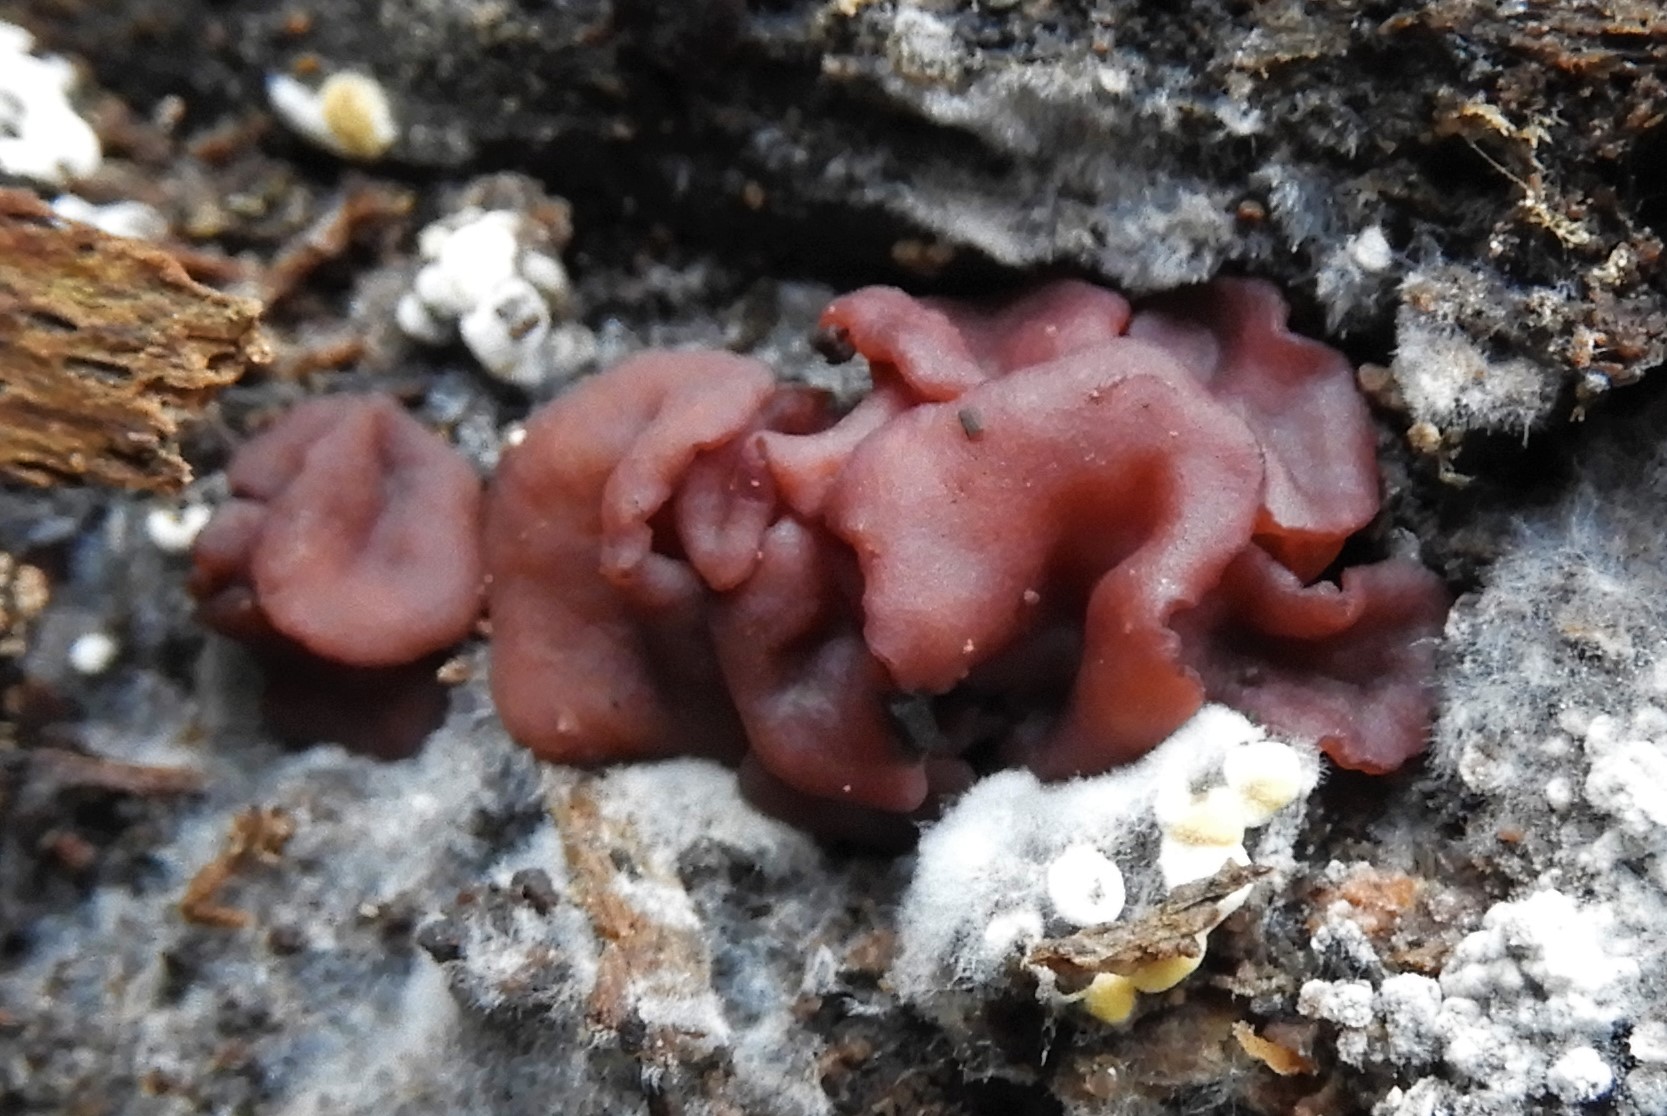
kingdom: Fungi
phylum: Ascomycota
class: Leotiomycetes
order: Helotiales
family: Gelatinodiscaceae
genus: Ascocoryne
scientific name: Ascocoryne
